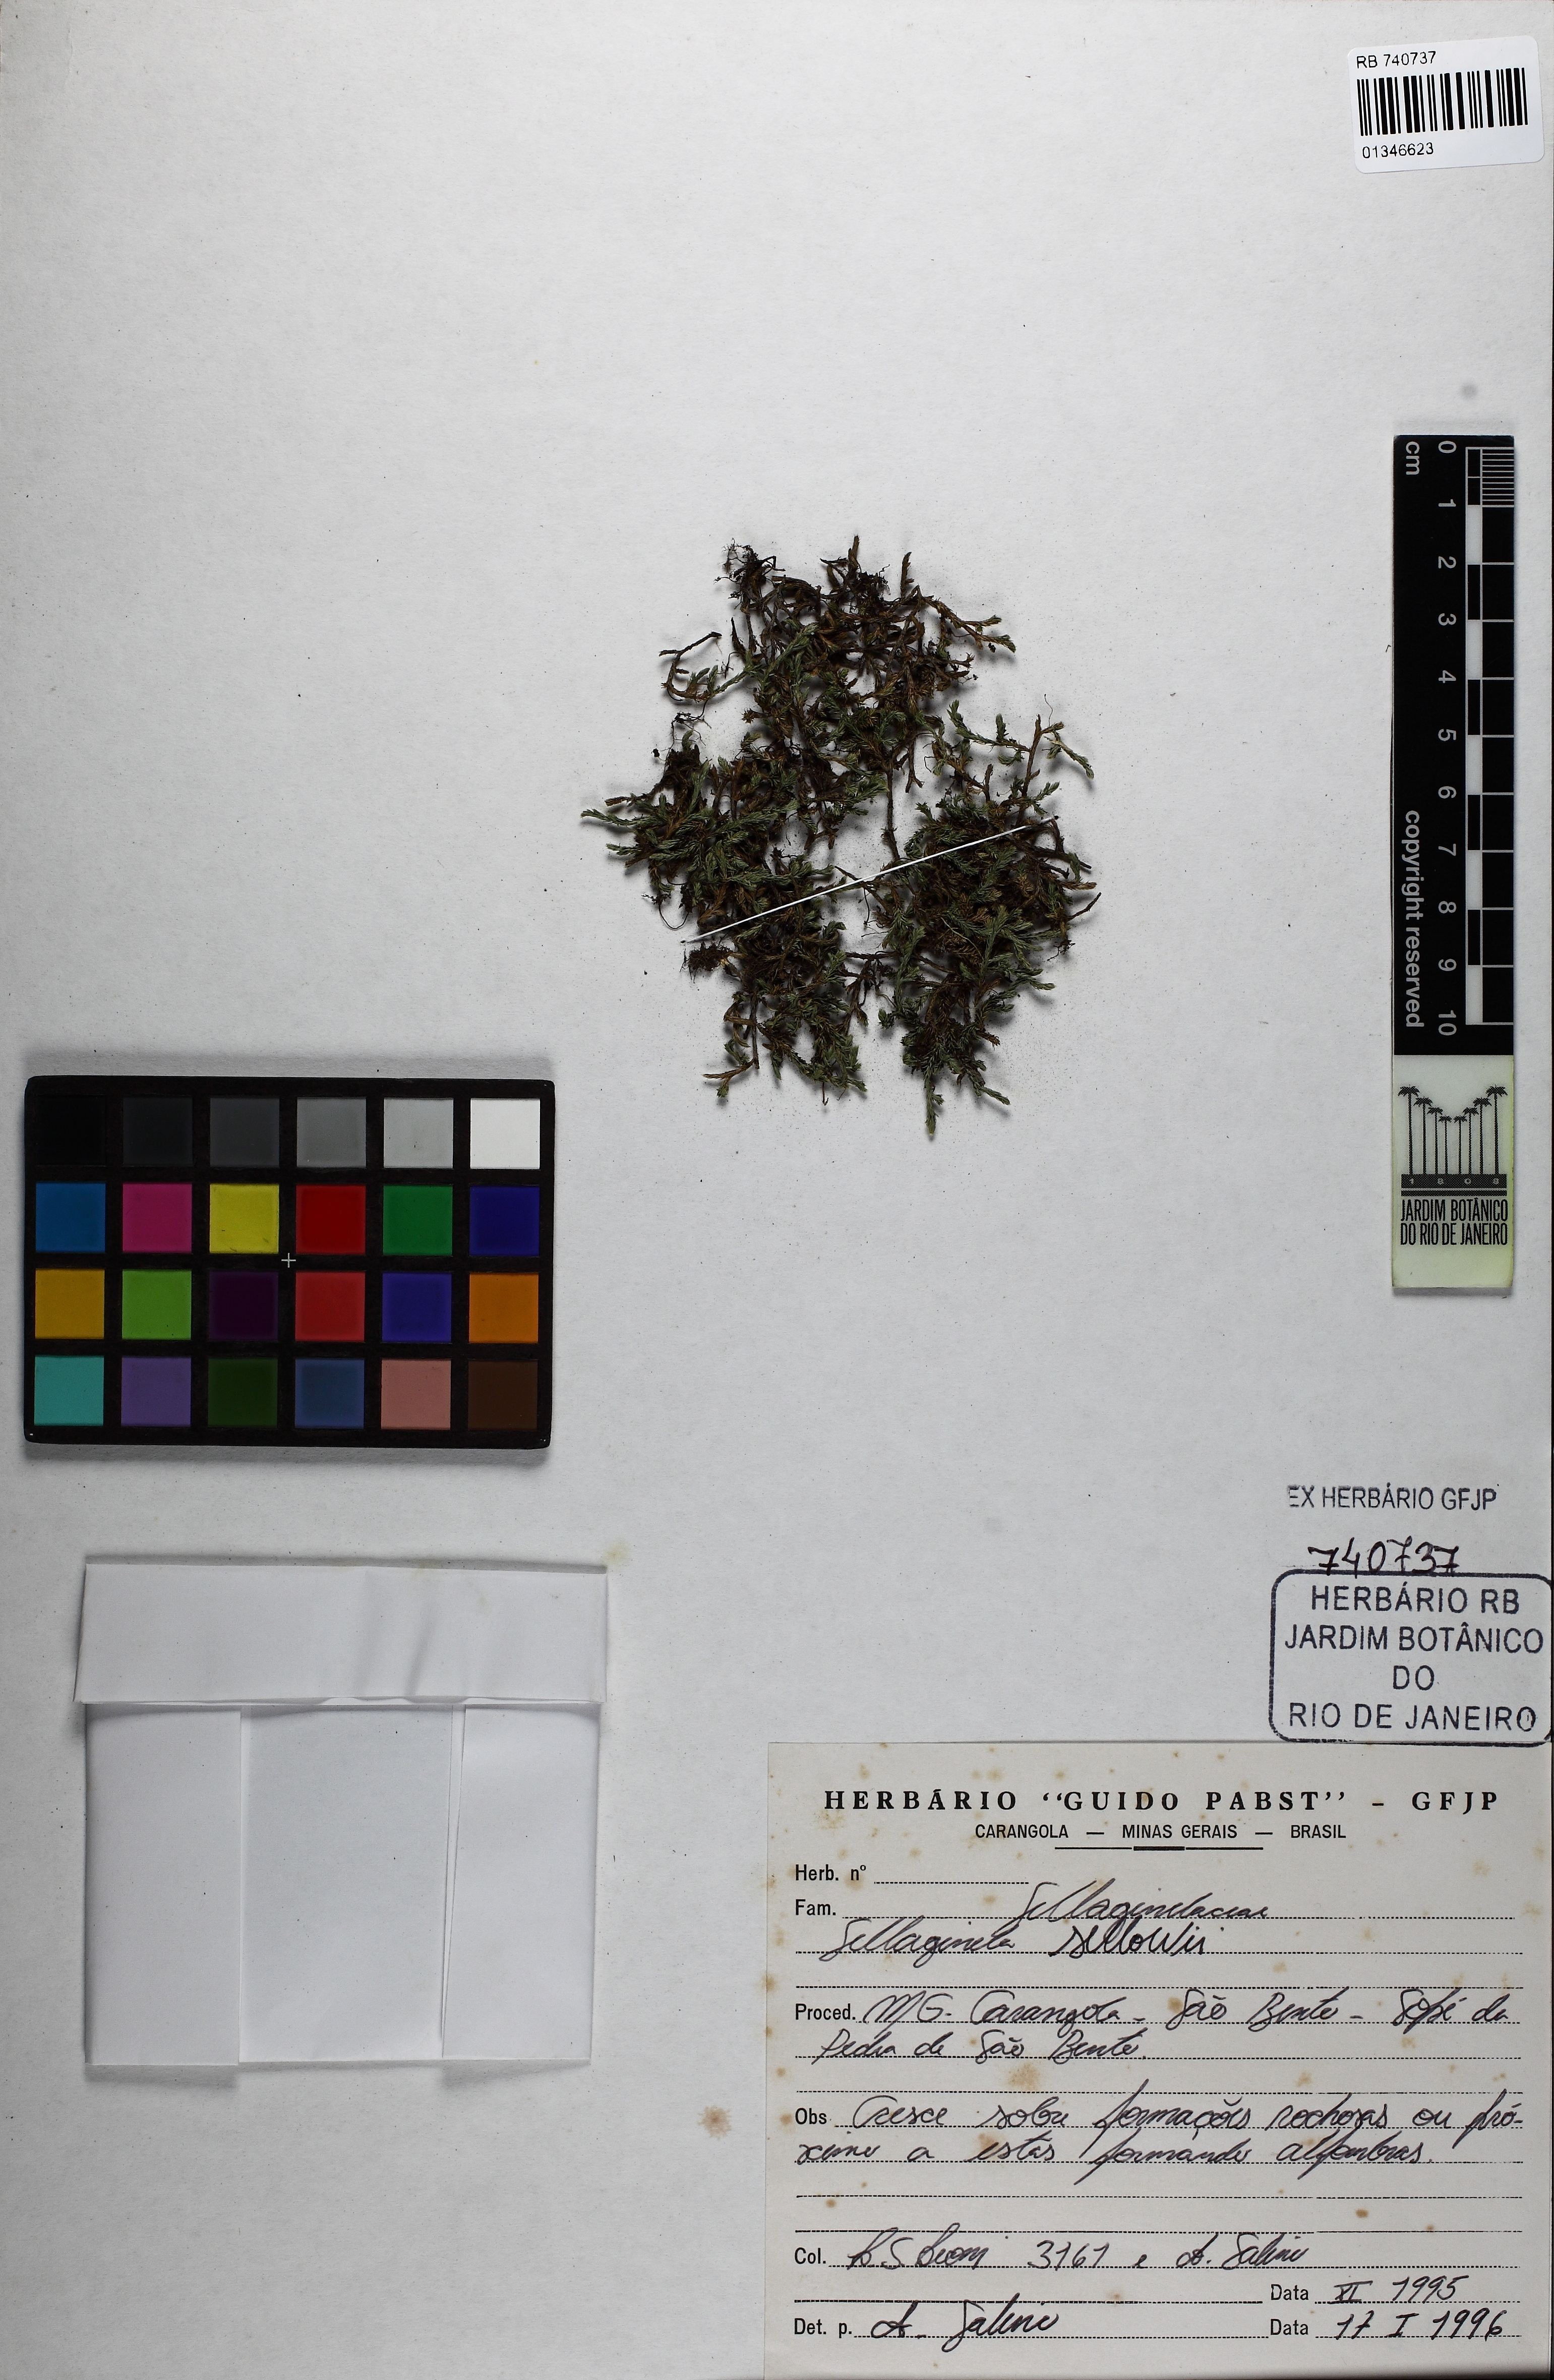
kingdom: Plantae
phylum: Tracheophyta
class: Lycopodiopsida
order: Selaginellales
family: Selaginellaceae
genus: Selaginella
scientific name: Selaginella sellowii
